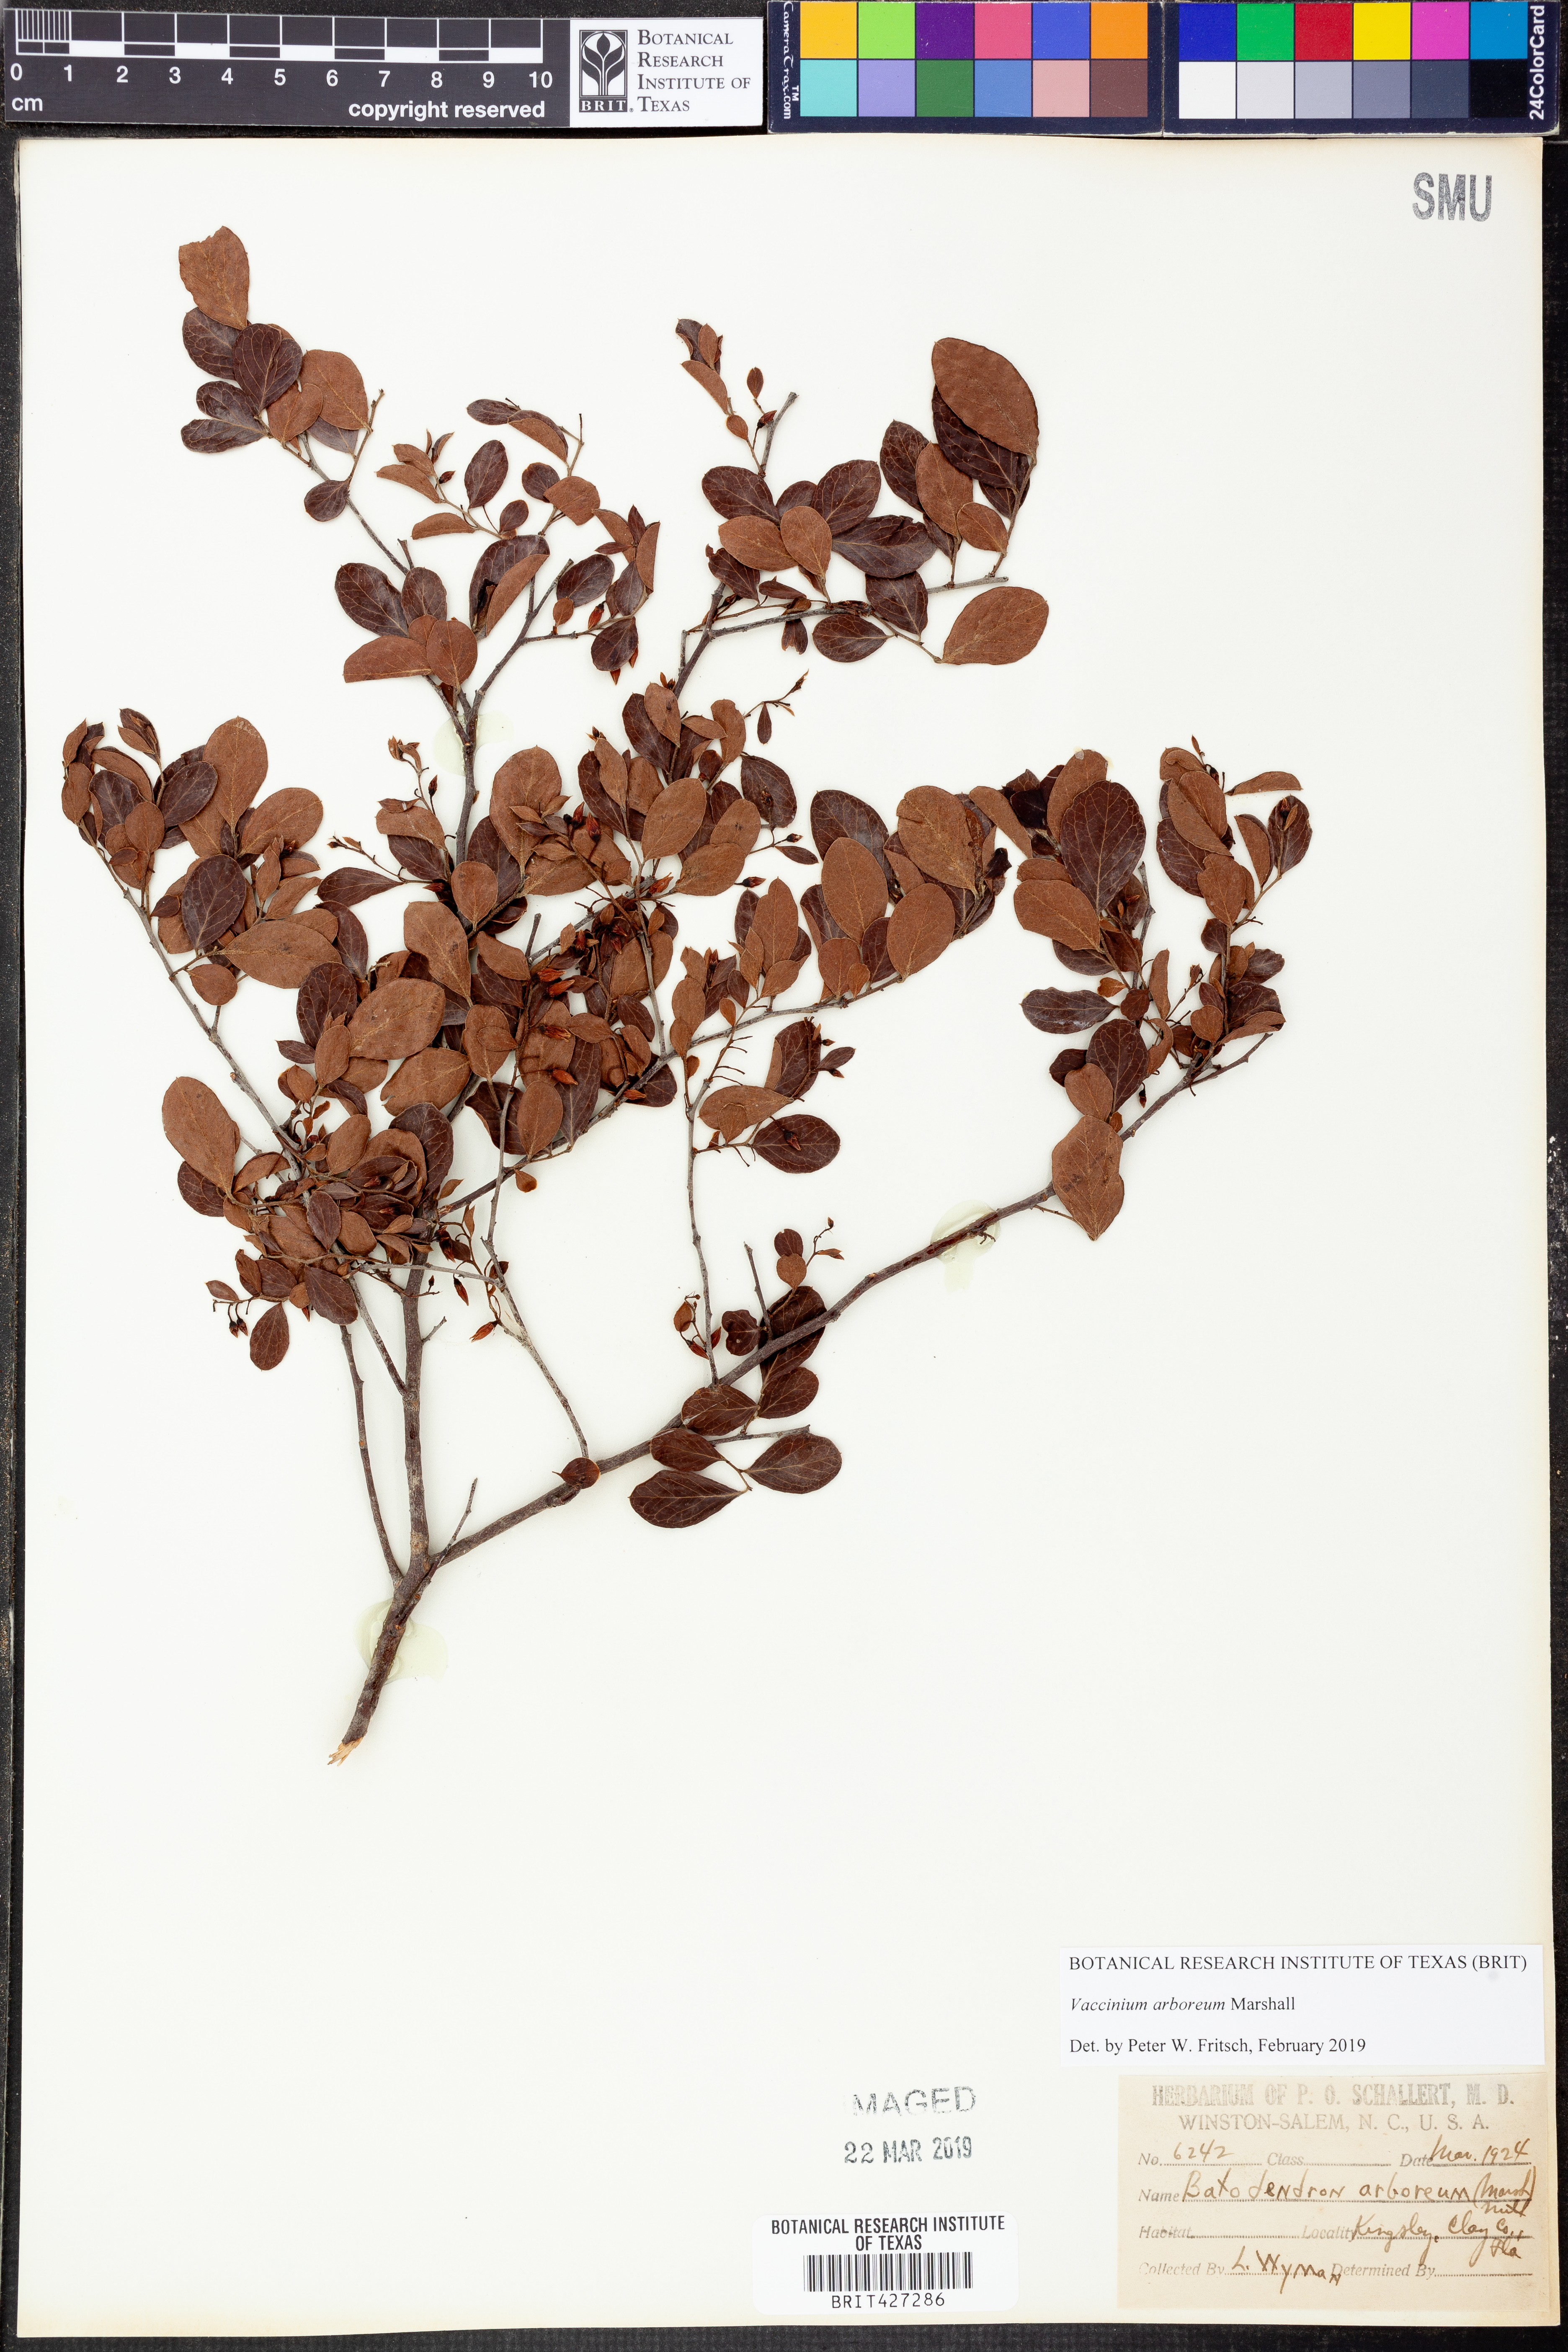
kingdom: Plantae
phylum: Tracheophyta
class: Magnoliopsida
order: Ericales
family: Ericaceae
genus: Vaccinium
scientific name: Vaccinium arboreum
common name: Farkleberry
